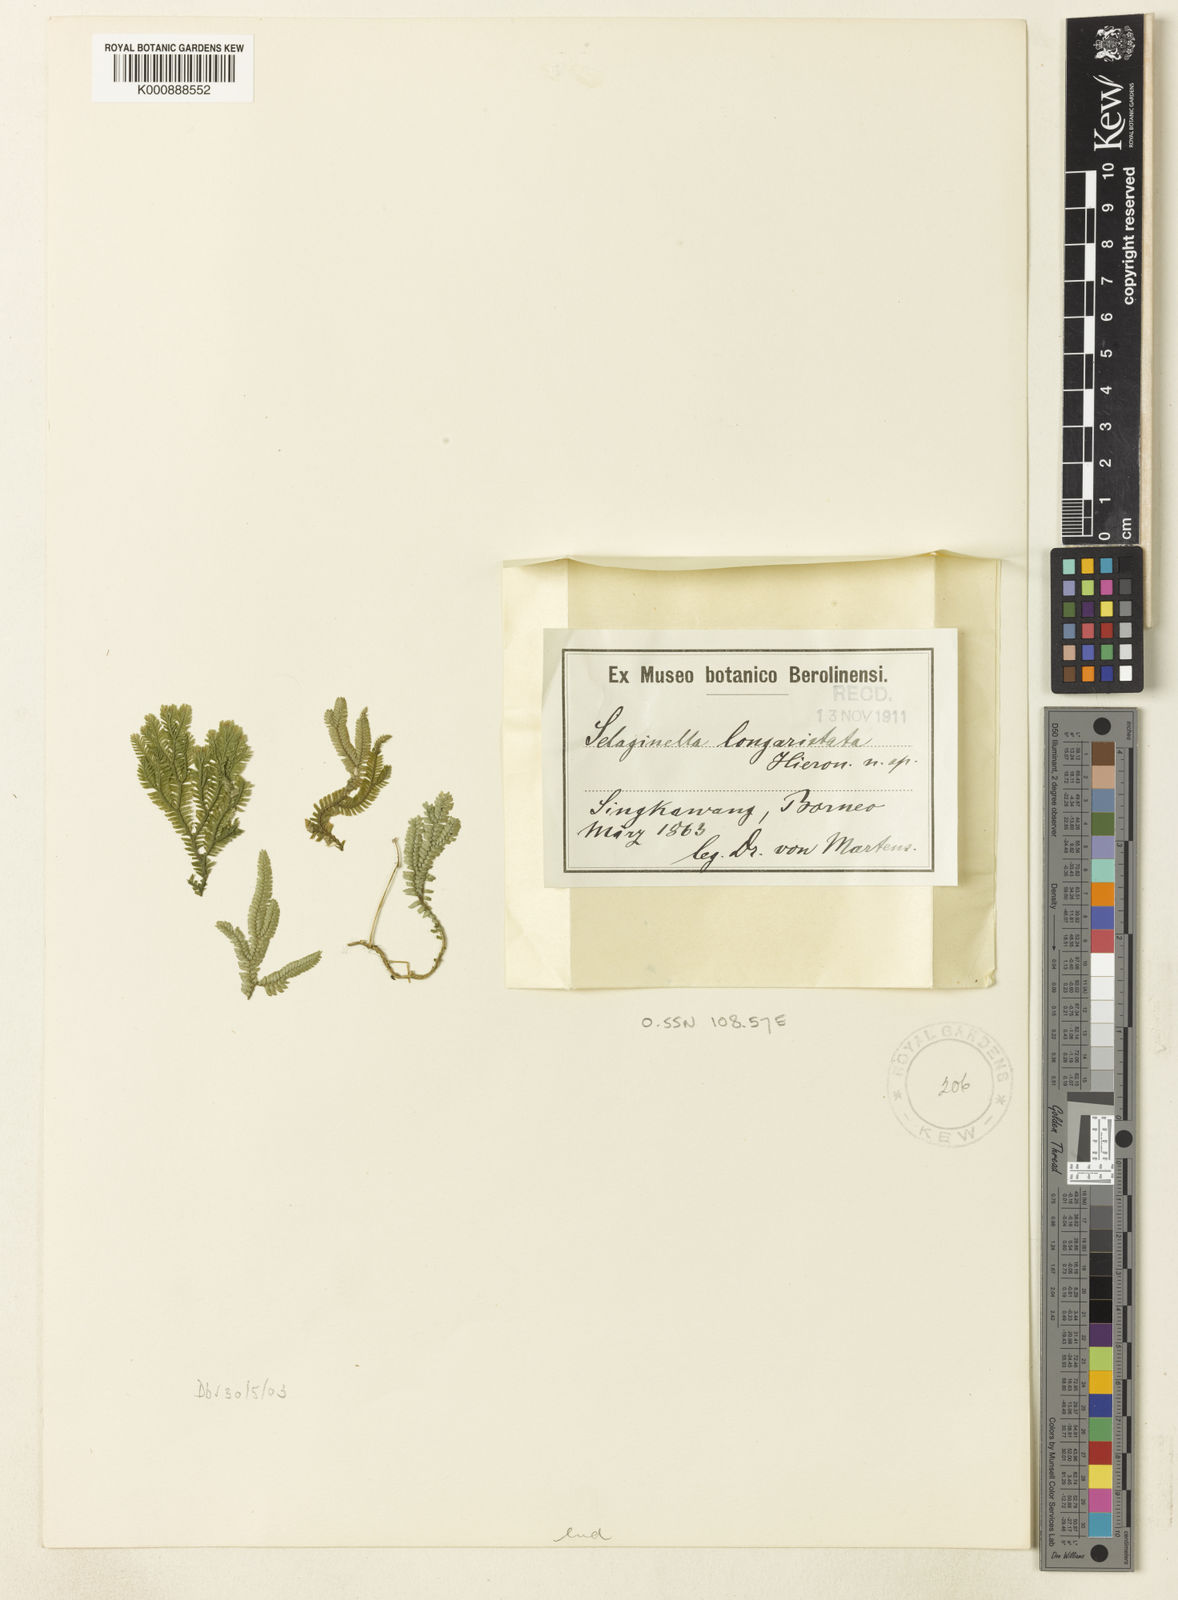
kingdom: Plantae
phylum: Tracheophyta
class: Lycopodiopsida
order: Selaginellales
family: Selaginellaceae
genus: Selaginella
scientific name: Selaginella longiaristata
